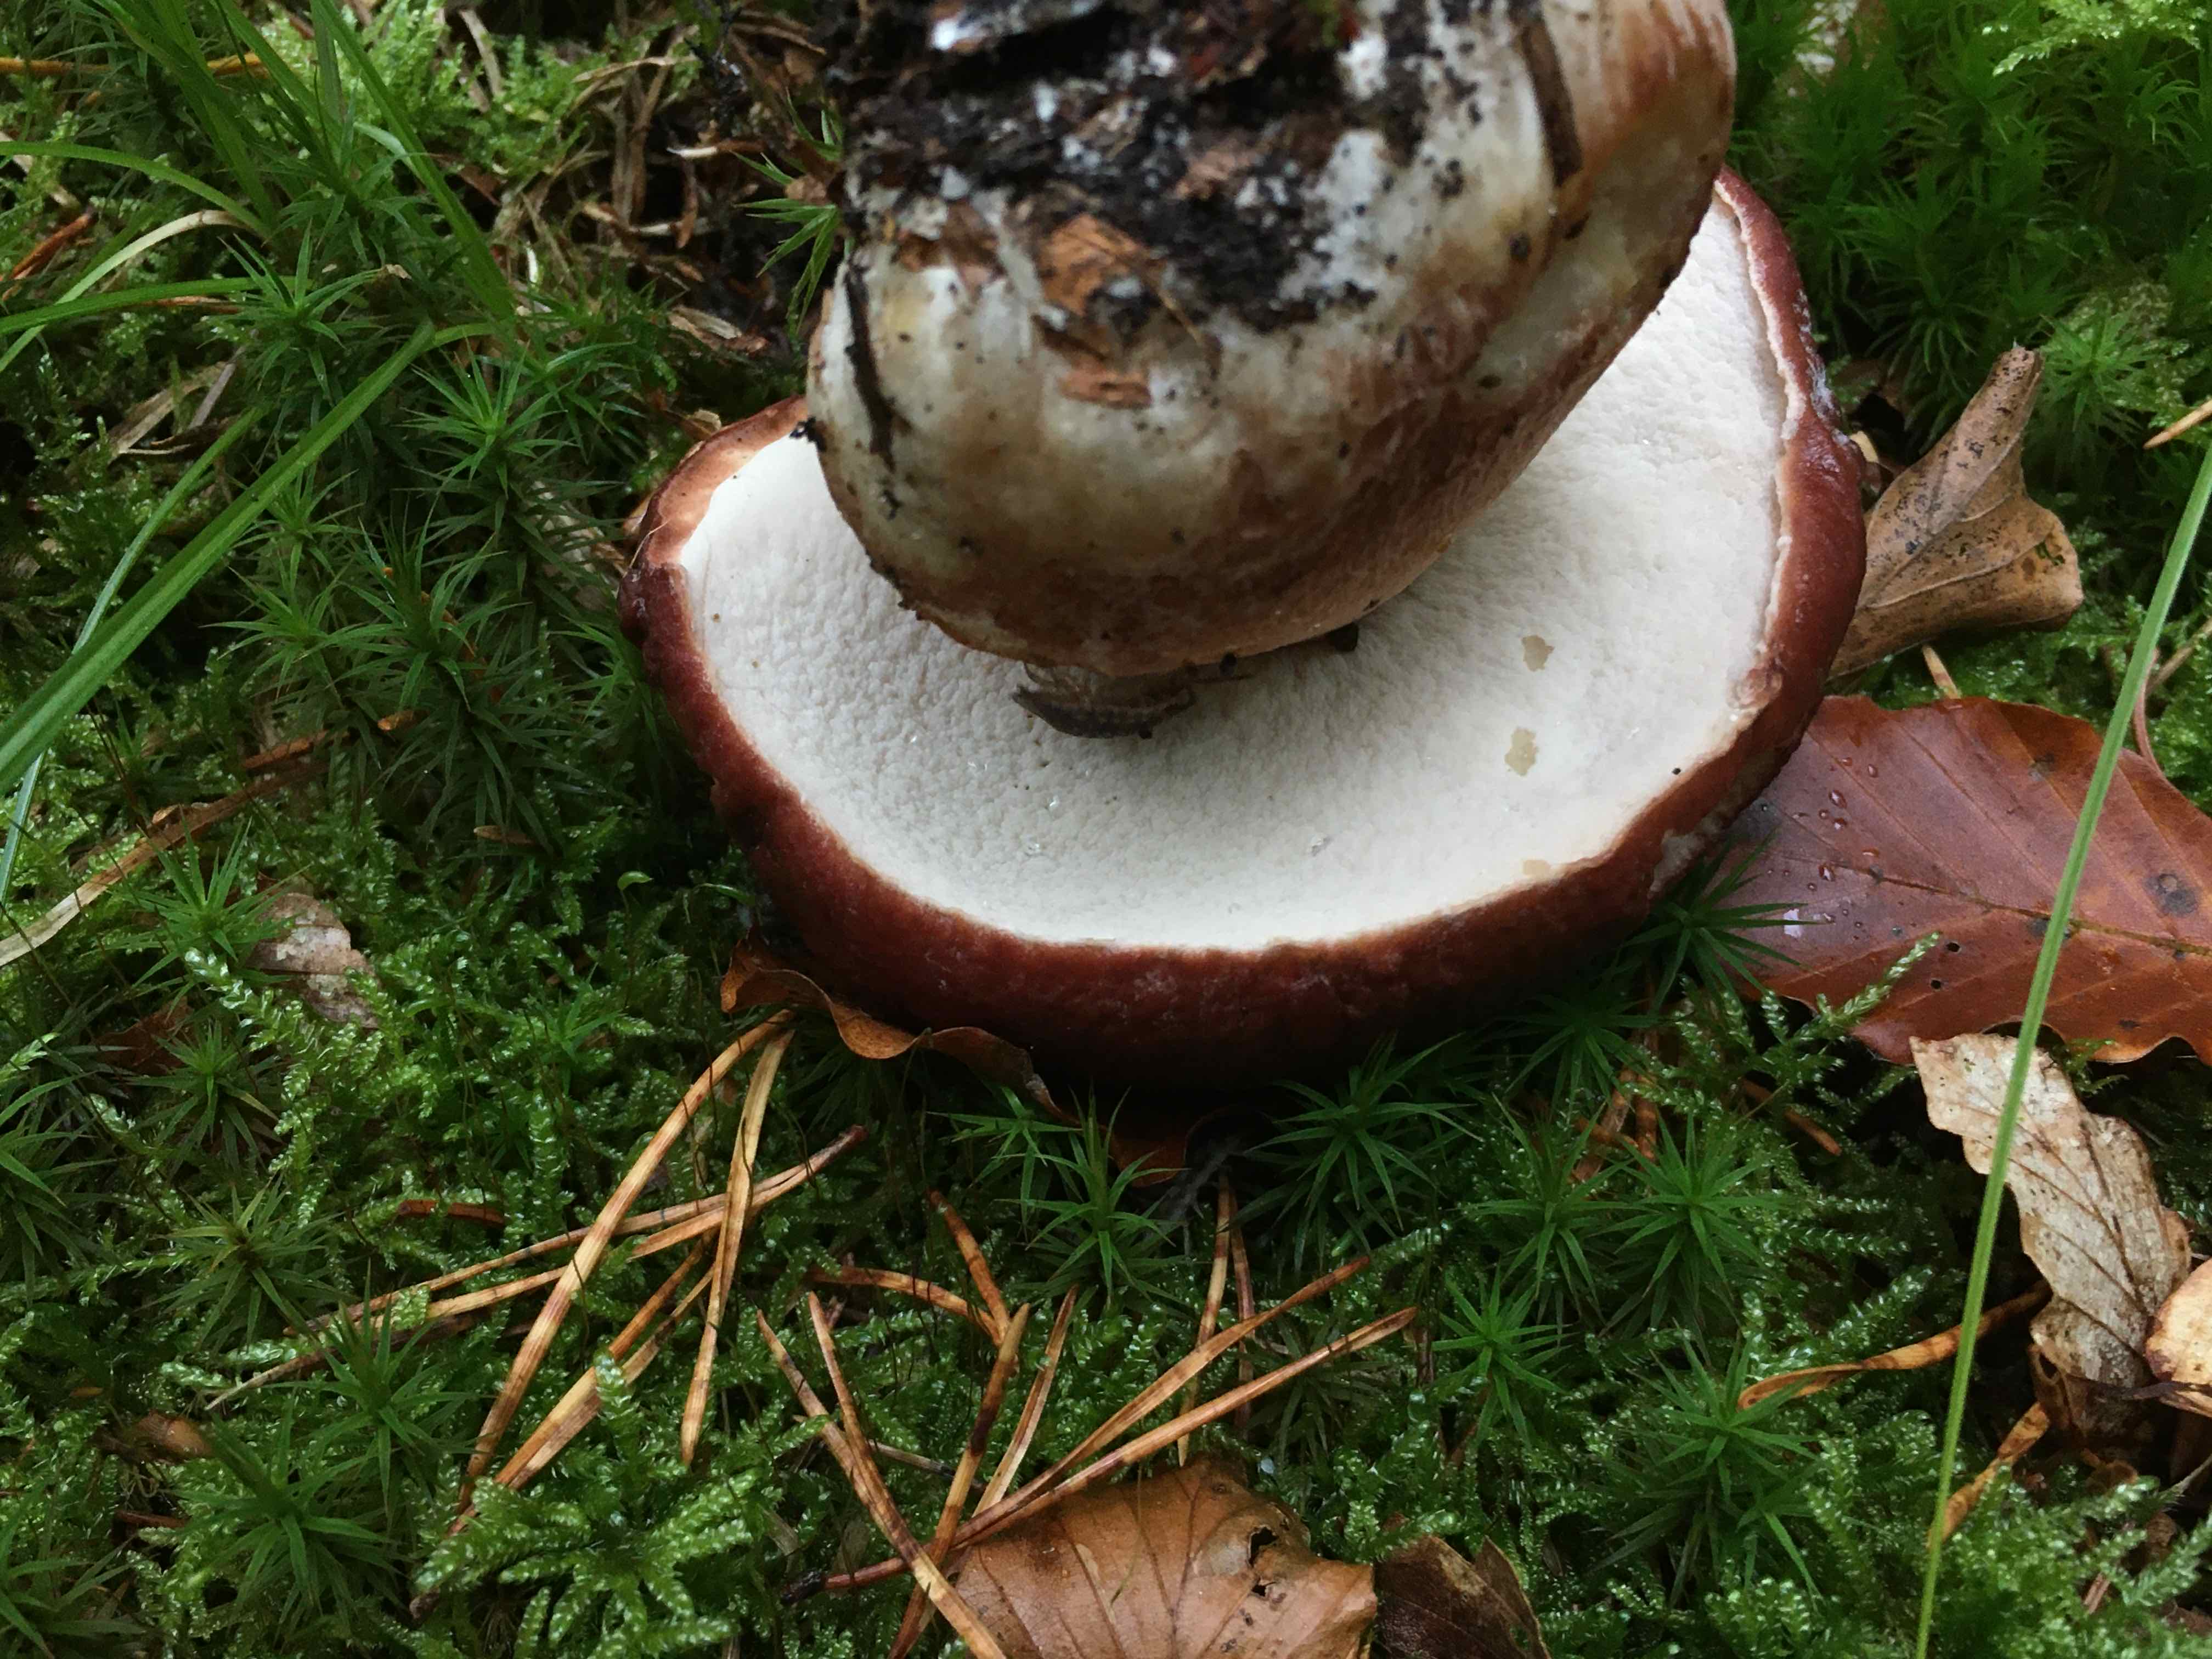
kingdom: Fungi
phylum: Basidiomycota
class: Agaricomycetes
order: Boletales
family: Boletaceae
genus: Boletus
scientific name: Boletus pinophilus
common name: rødbrun rørhat
